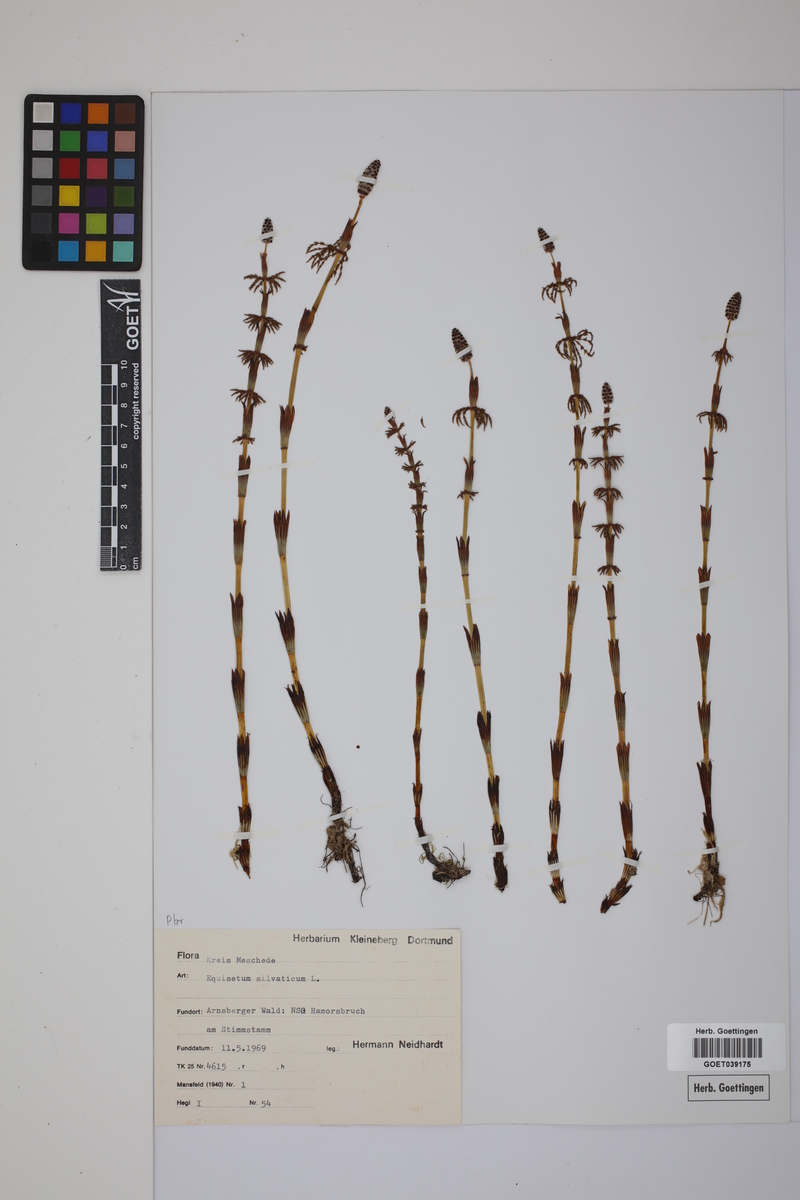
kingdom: Plantae
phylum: Tracheophyta
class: Polypodiopsida
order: Equisetales
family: Equisetaceae
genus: Equisetum
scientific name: Equisetum sylvaticum
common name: Wood horsetail
